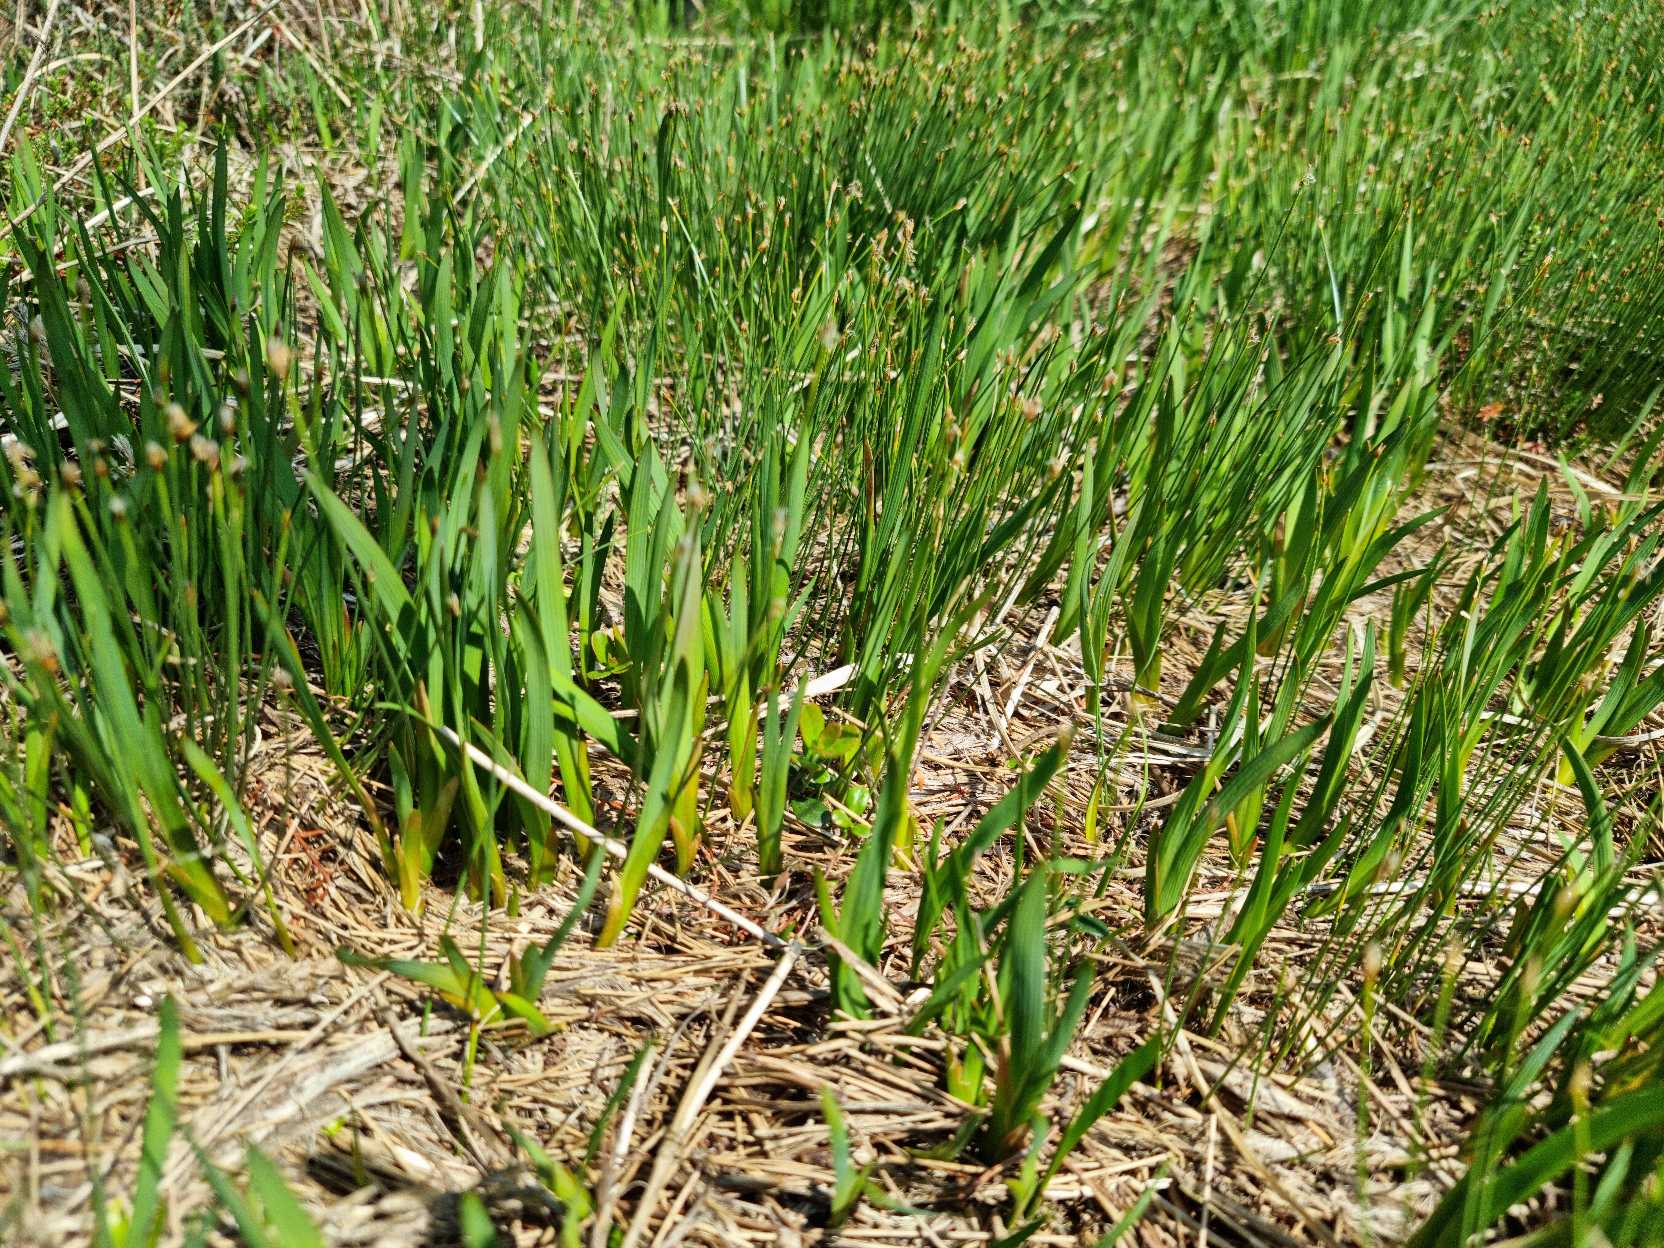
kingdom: Plantae
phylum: Tracheophyta
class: Liliopsida
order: Dioscoreales
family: Nartheciaceae
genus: Narthecium
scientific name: Narthecium ossifragum
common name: Benbræk
